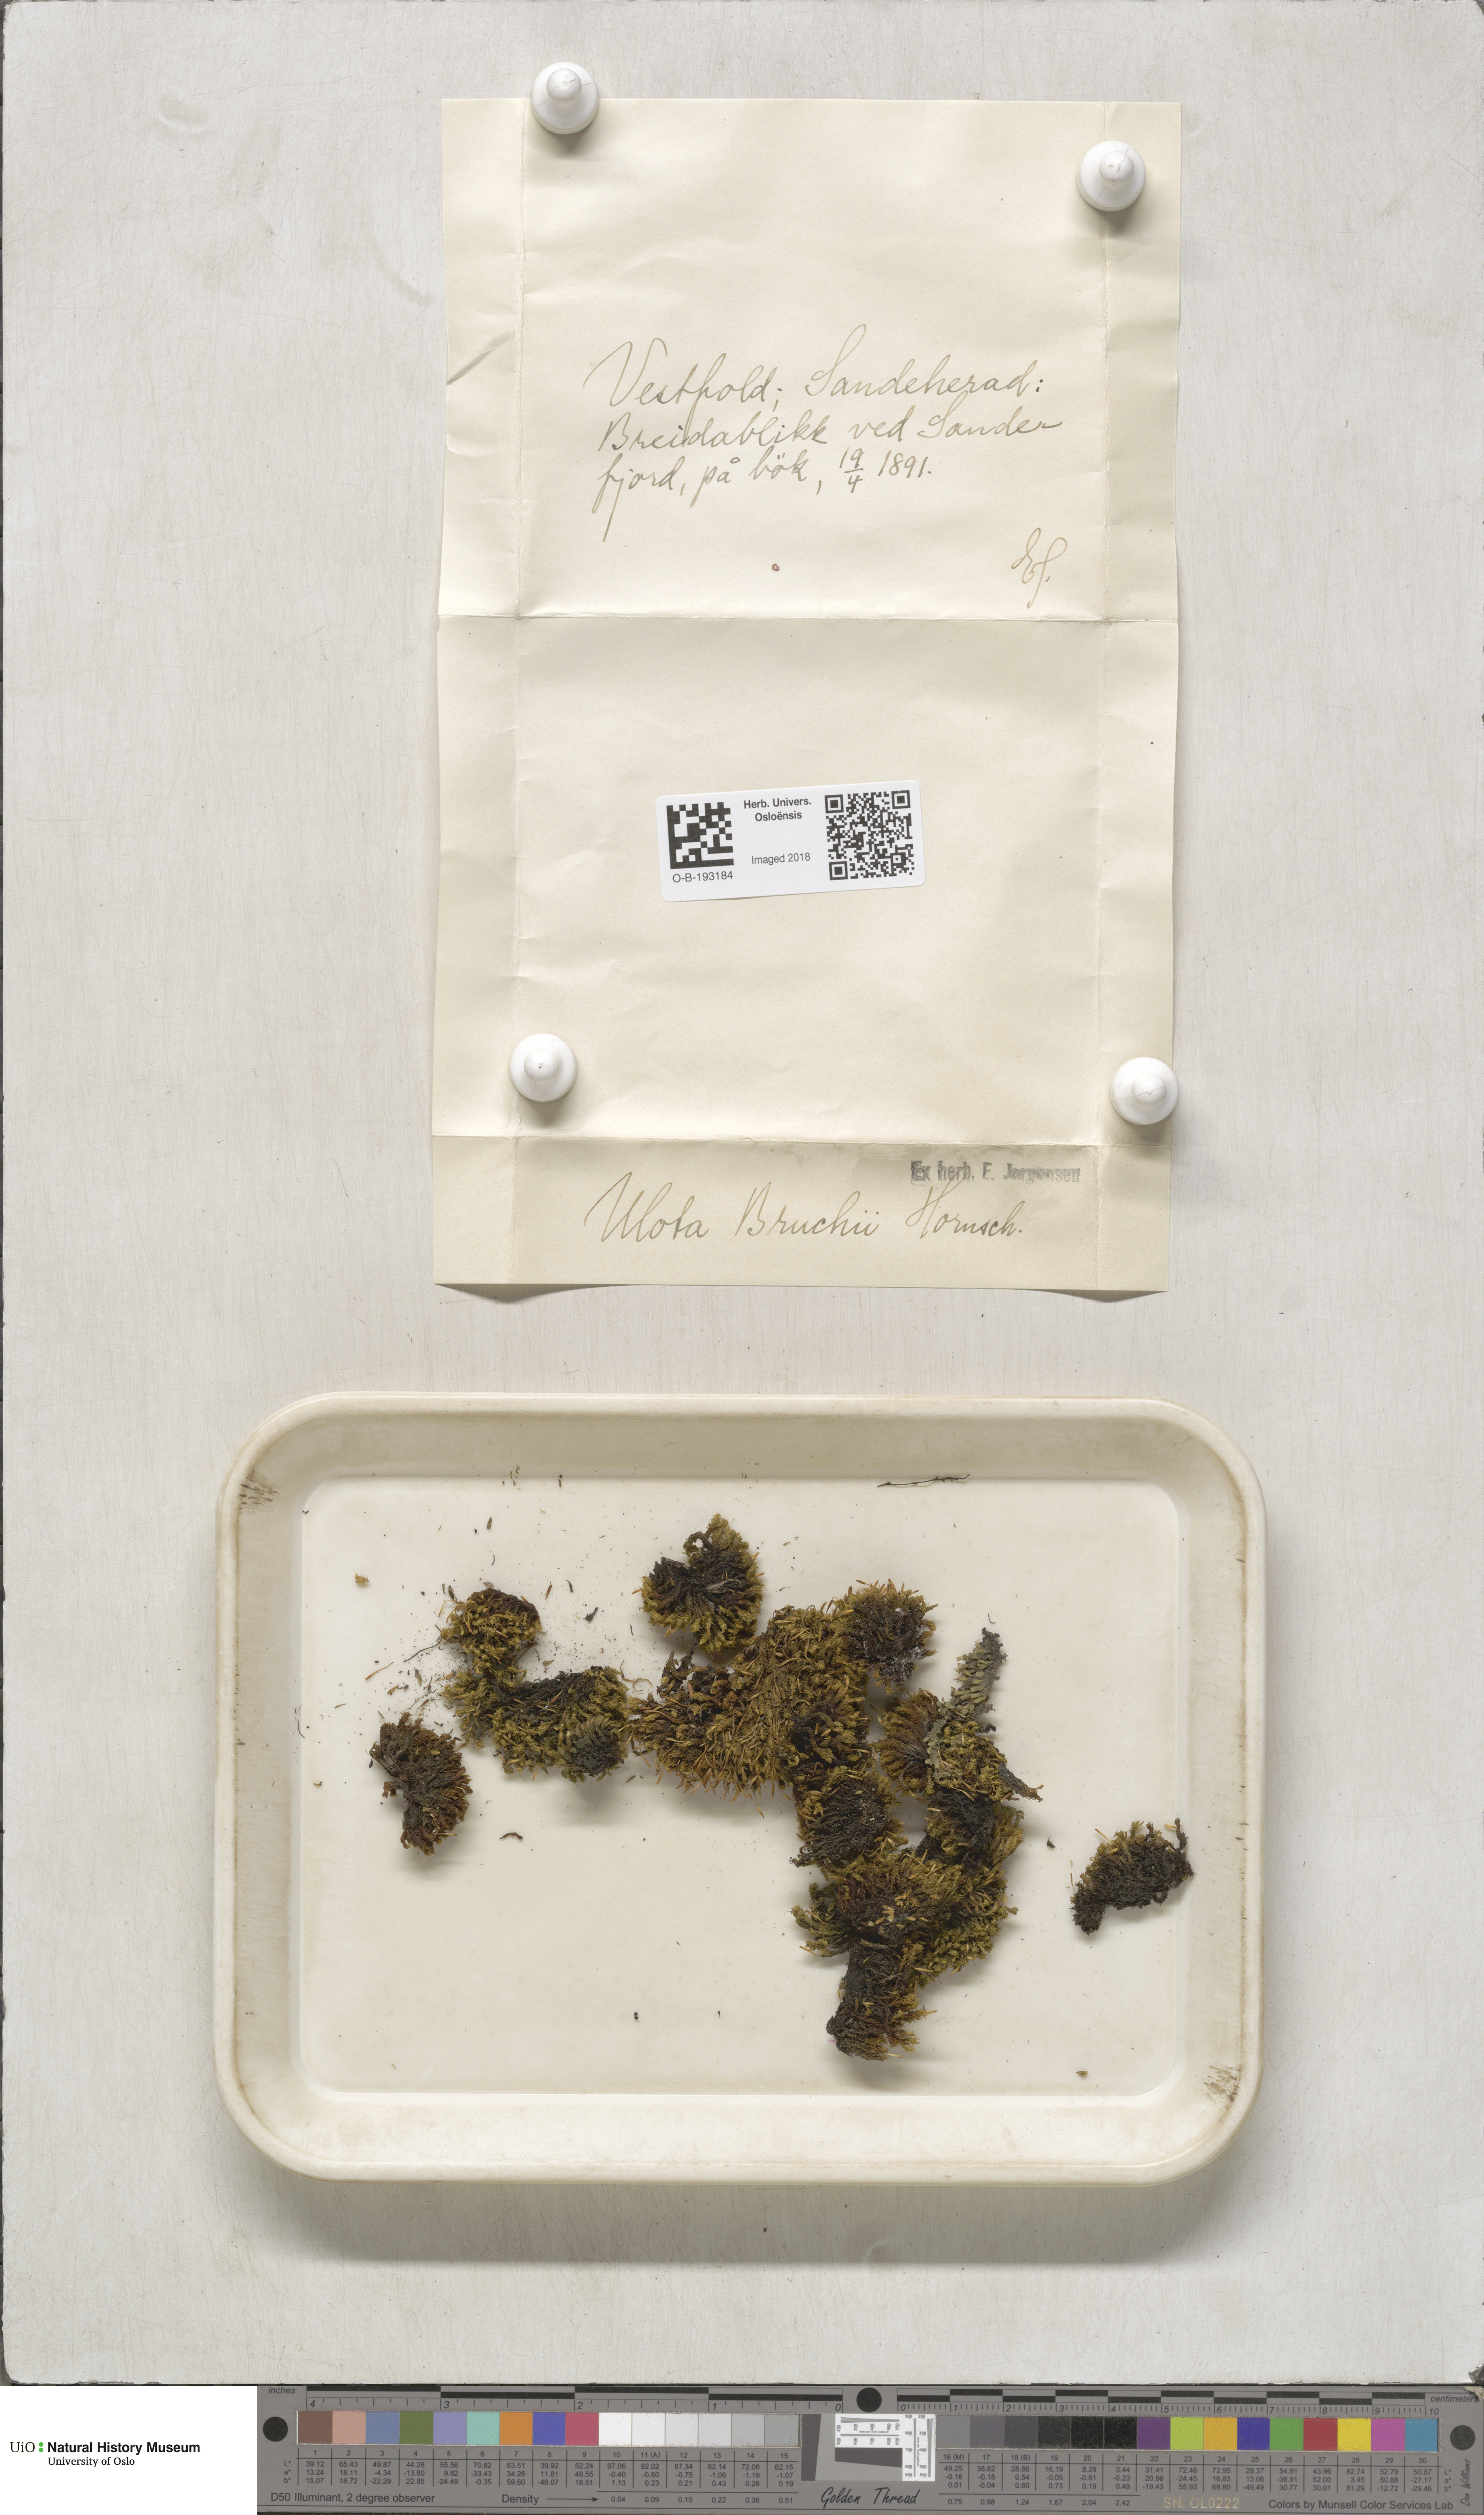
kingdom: Plantae
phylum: Bryophyta
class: Bryopsida
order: Orthotrichales
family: Orthotrichaceae
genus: Ulota
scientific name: Ulota bruchii
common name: Bruch's pincushion
